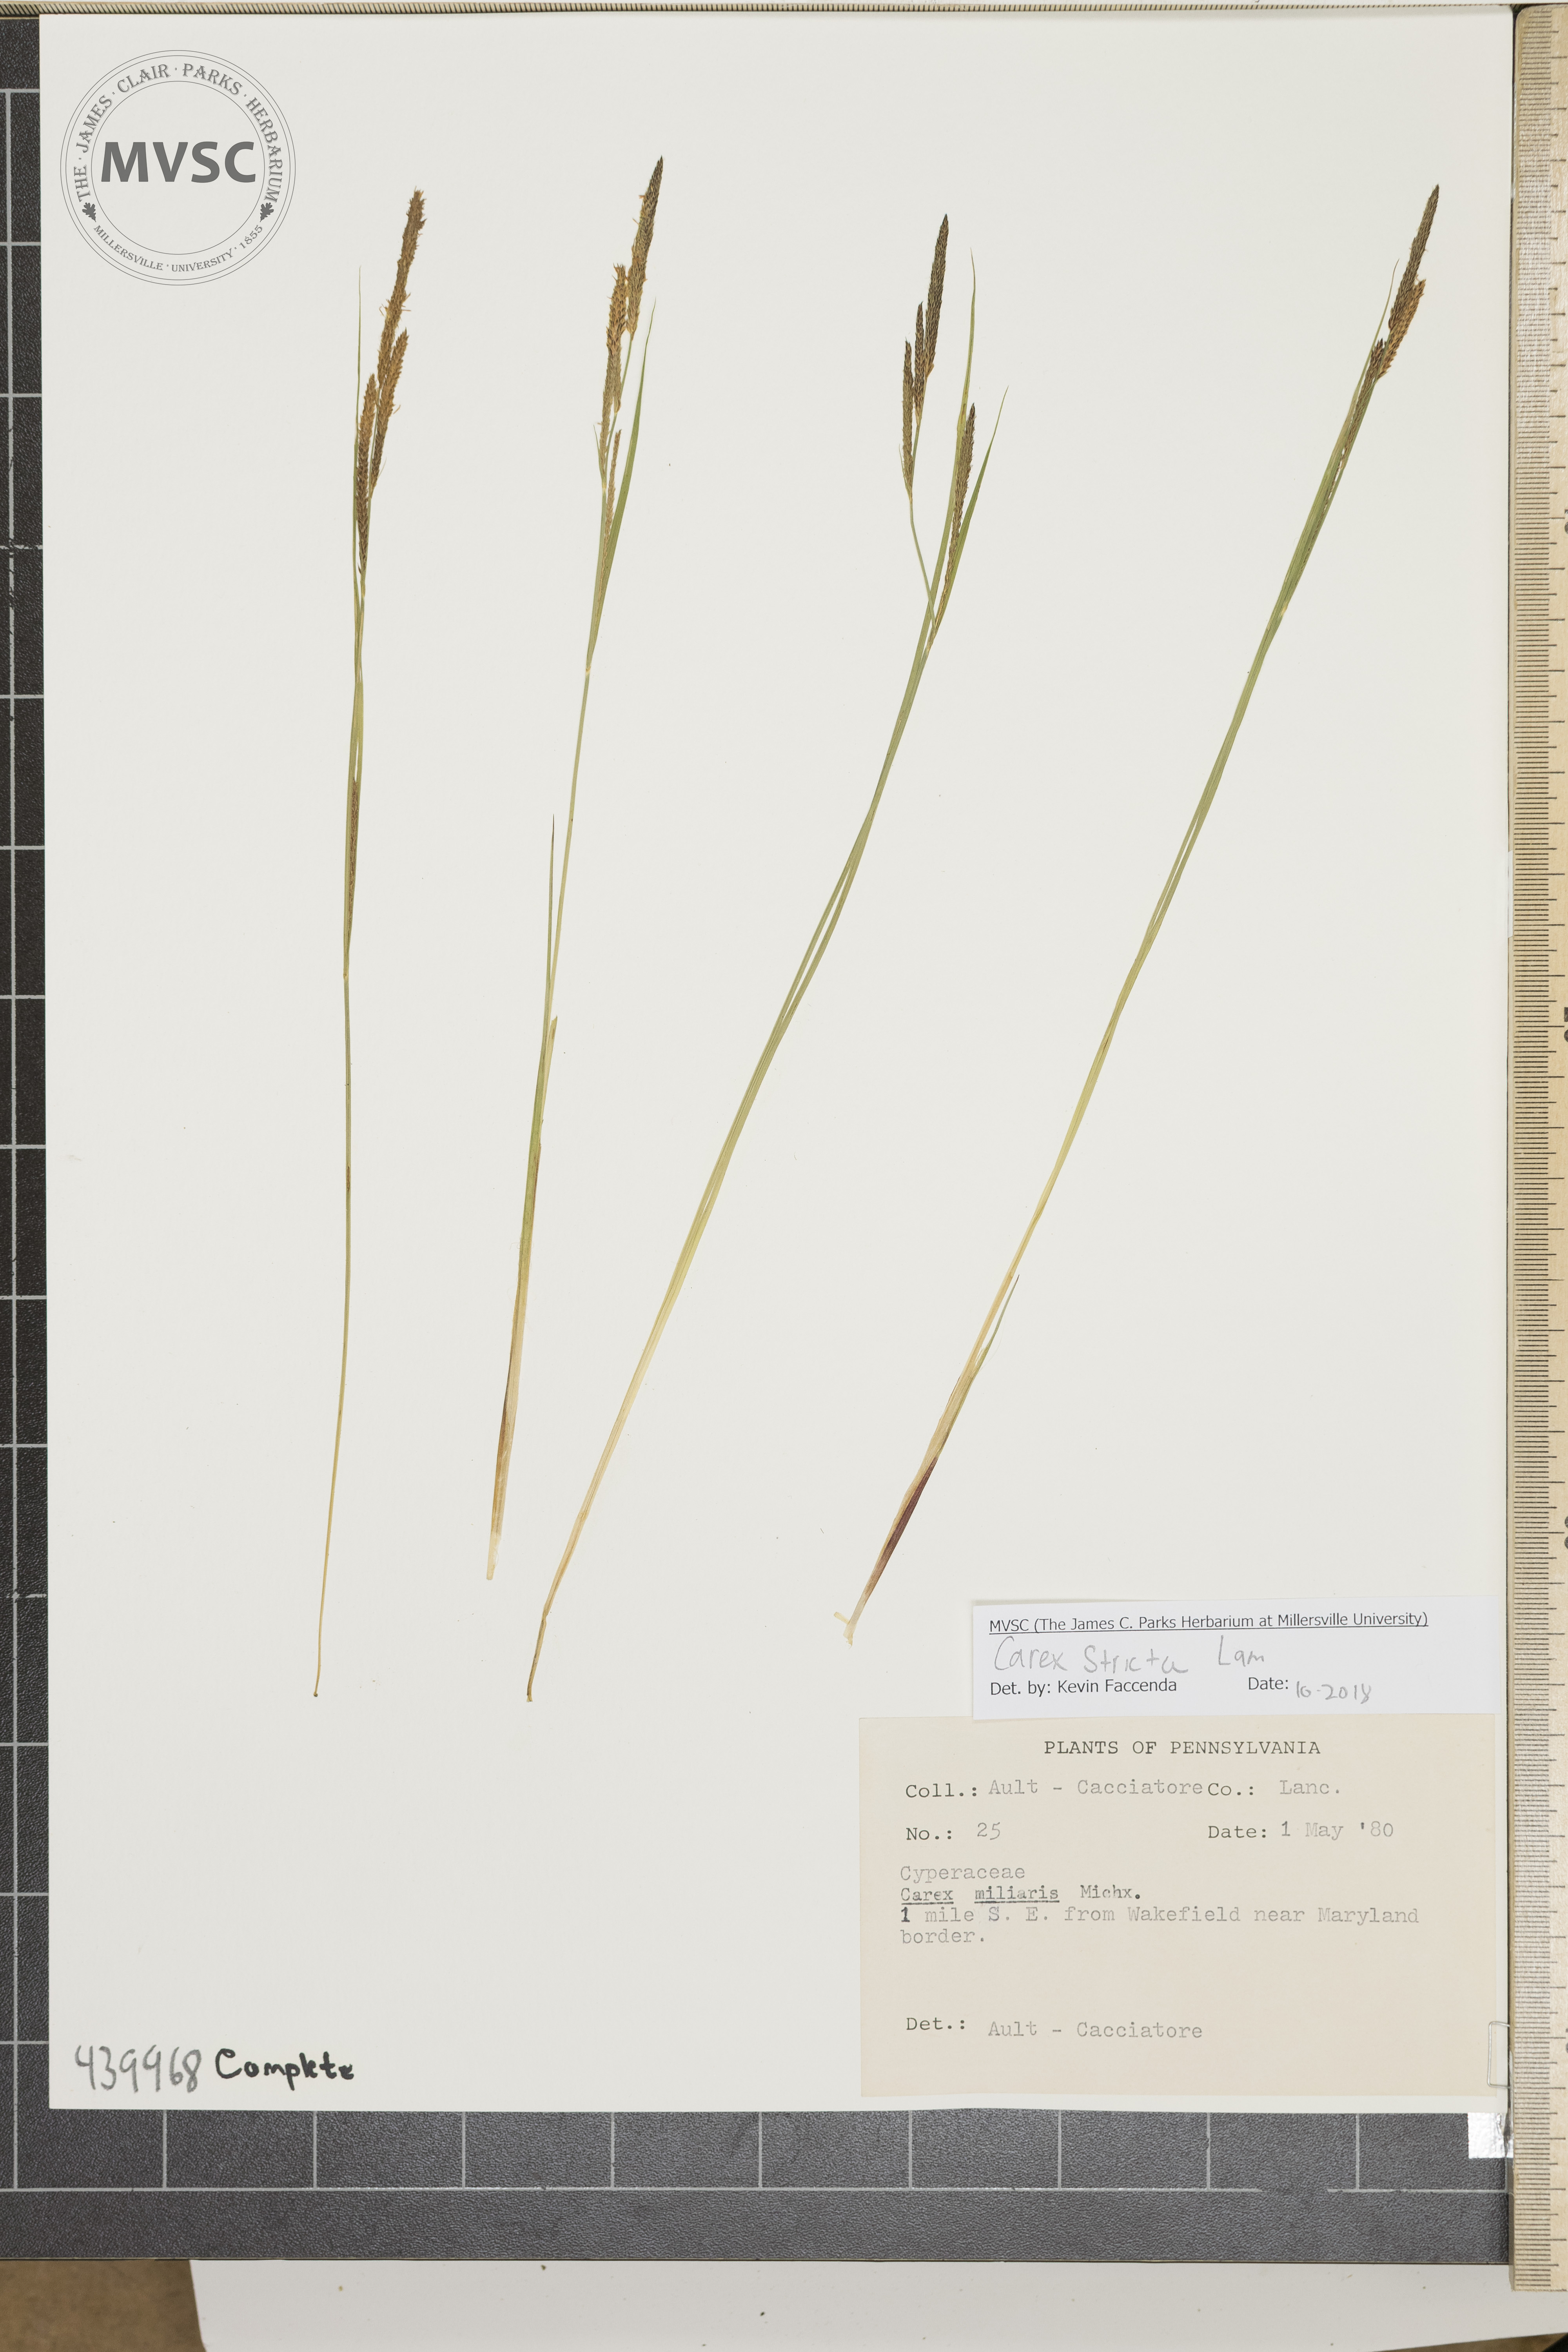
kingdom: Plantae
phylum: Tracheophyta
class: Liliopsida
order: Poales
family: Cyperaceae
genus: Carex
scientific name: Carex stricta
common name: Hummock sedge
